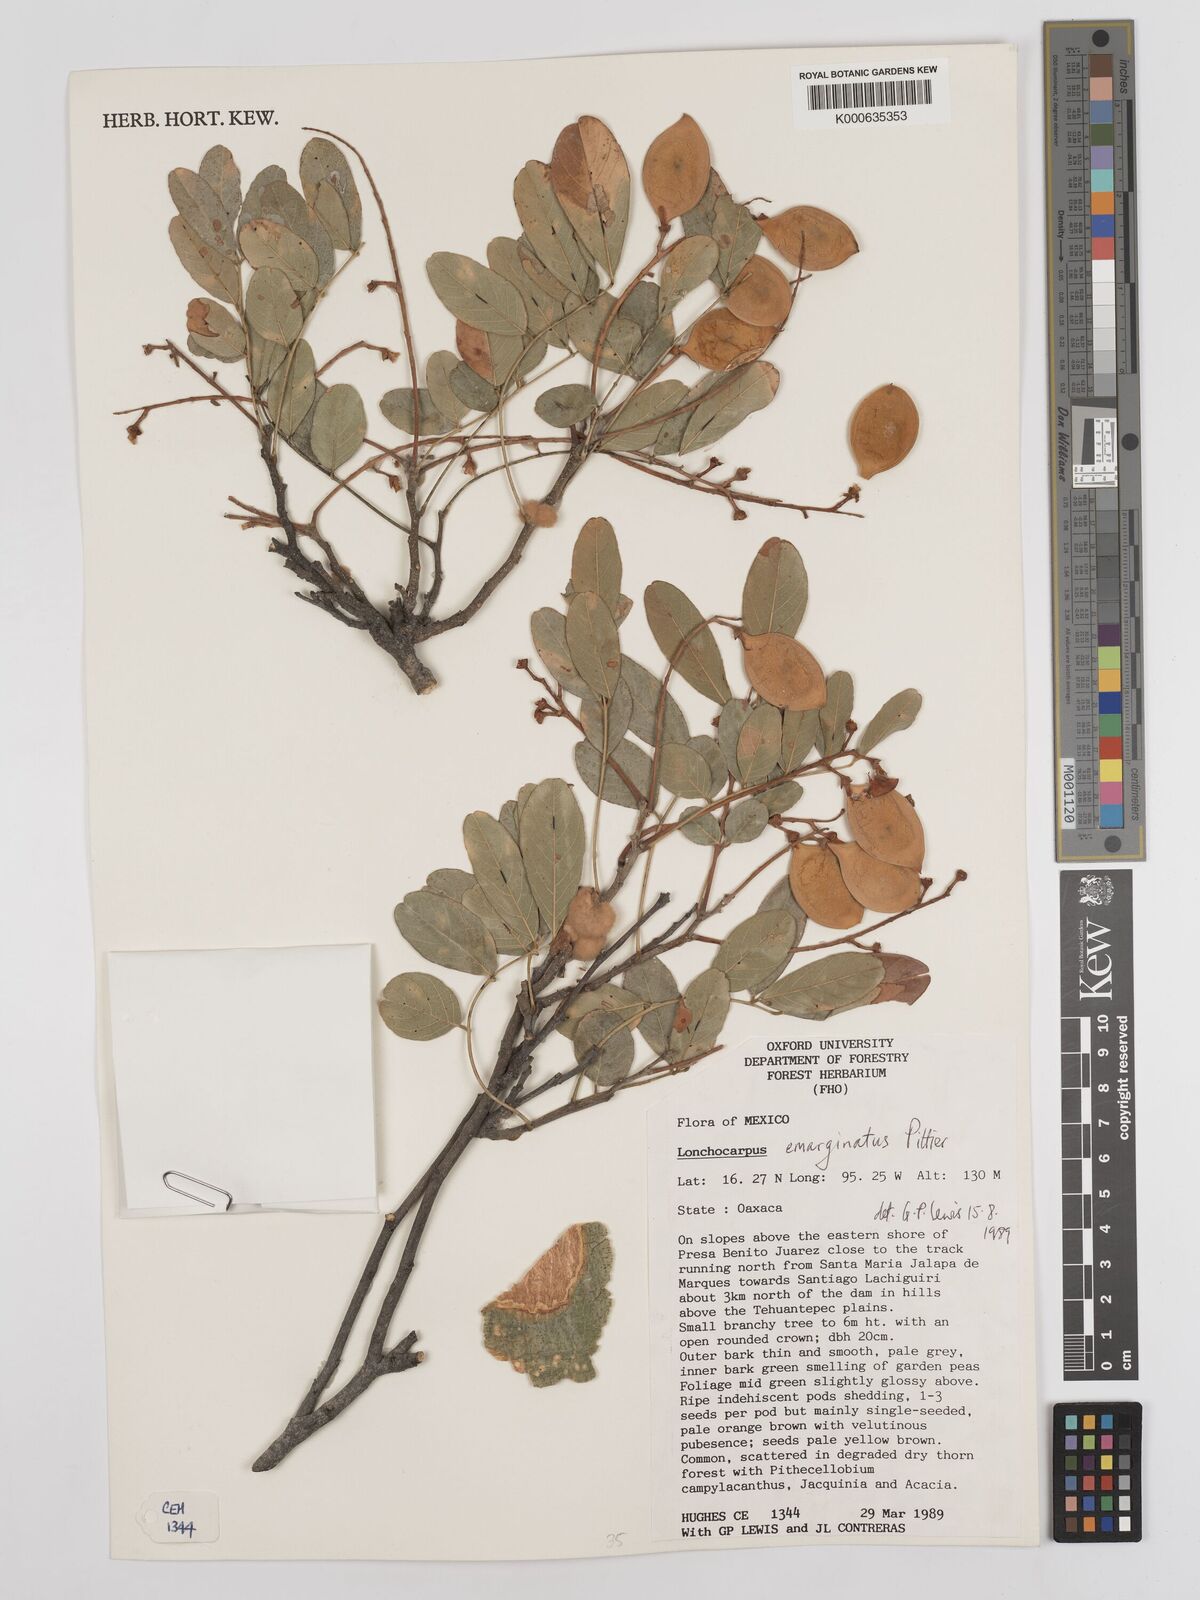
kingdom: Plantae
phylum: Tracheophyta
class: Magnoliopsida
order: Fabales
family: Fabaceae
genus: Lonchocarpus
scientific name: Lonchocarpus emarginatus
